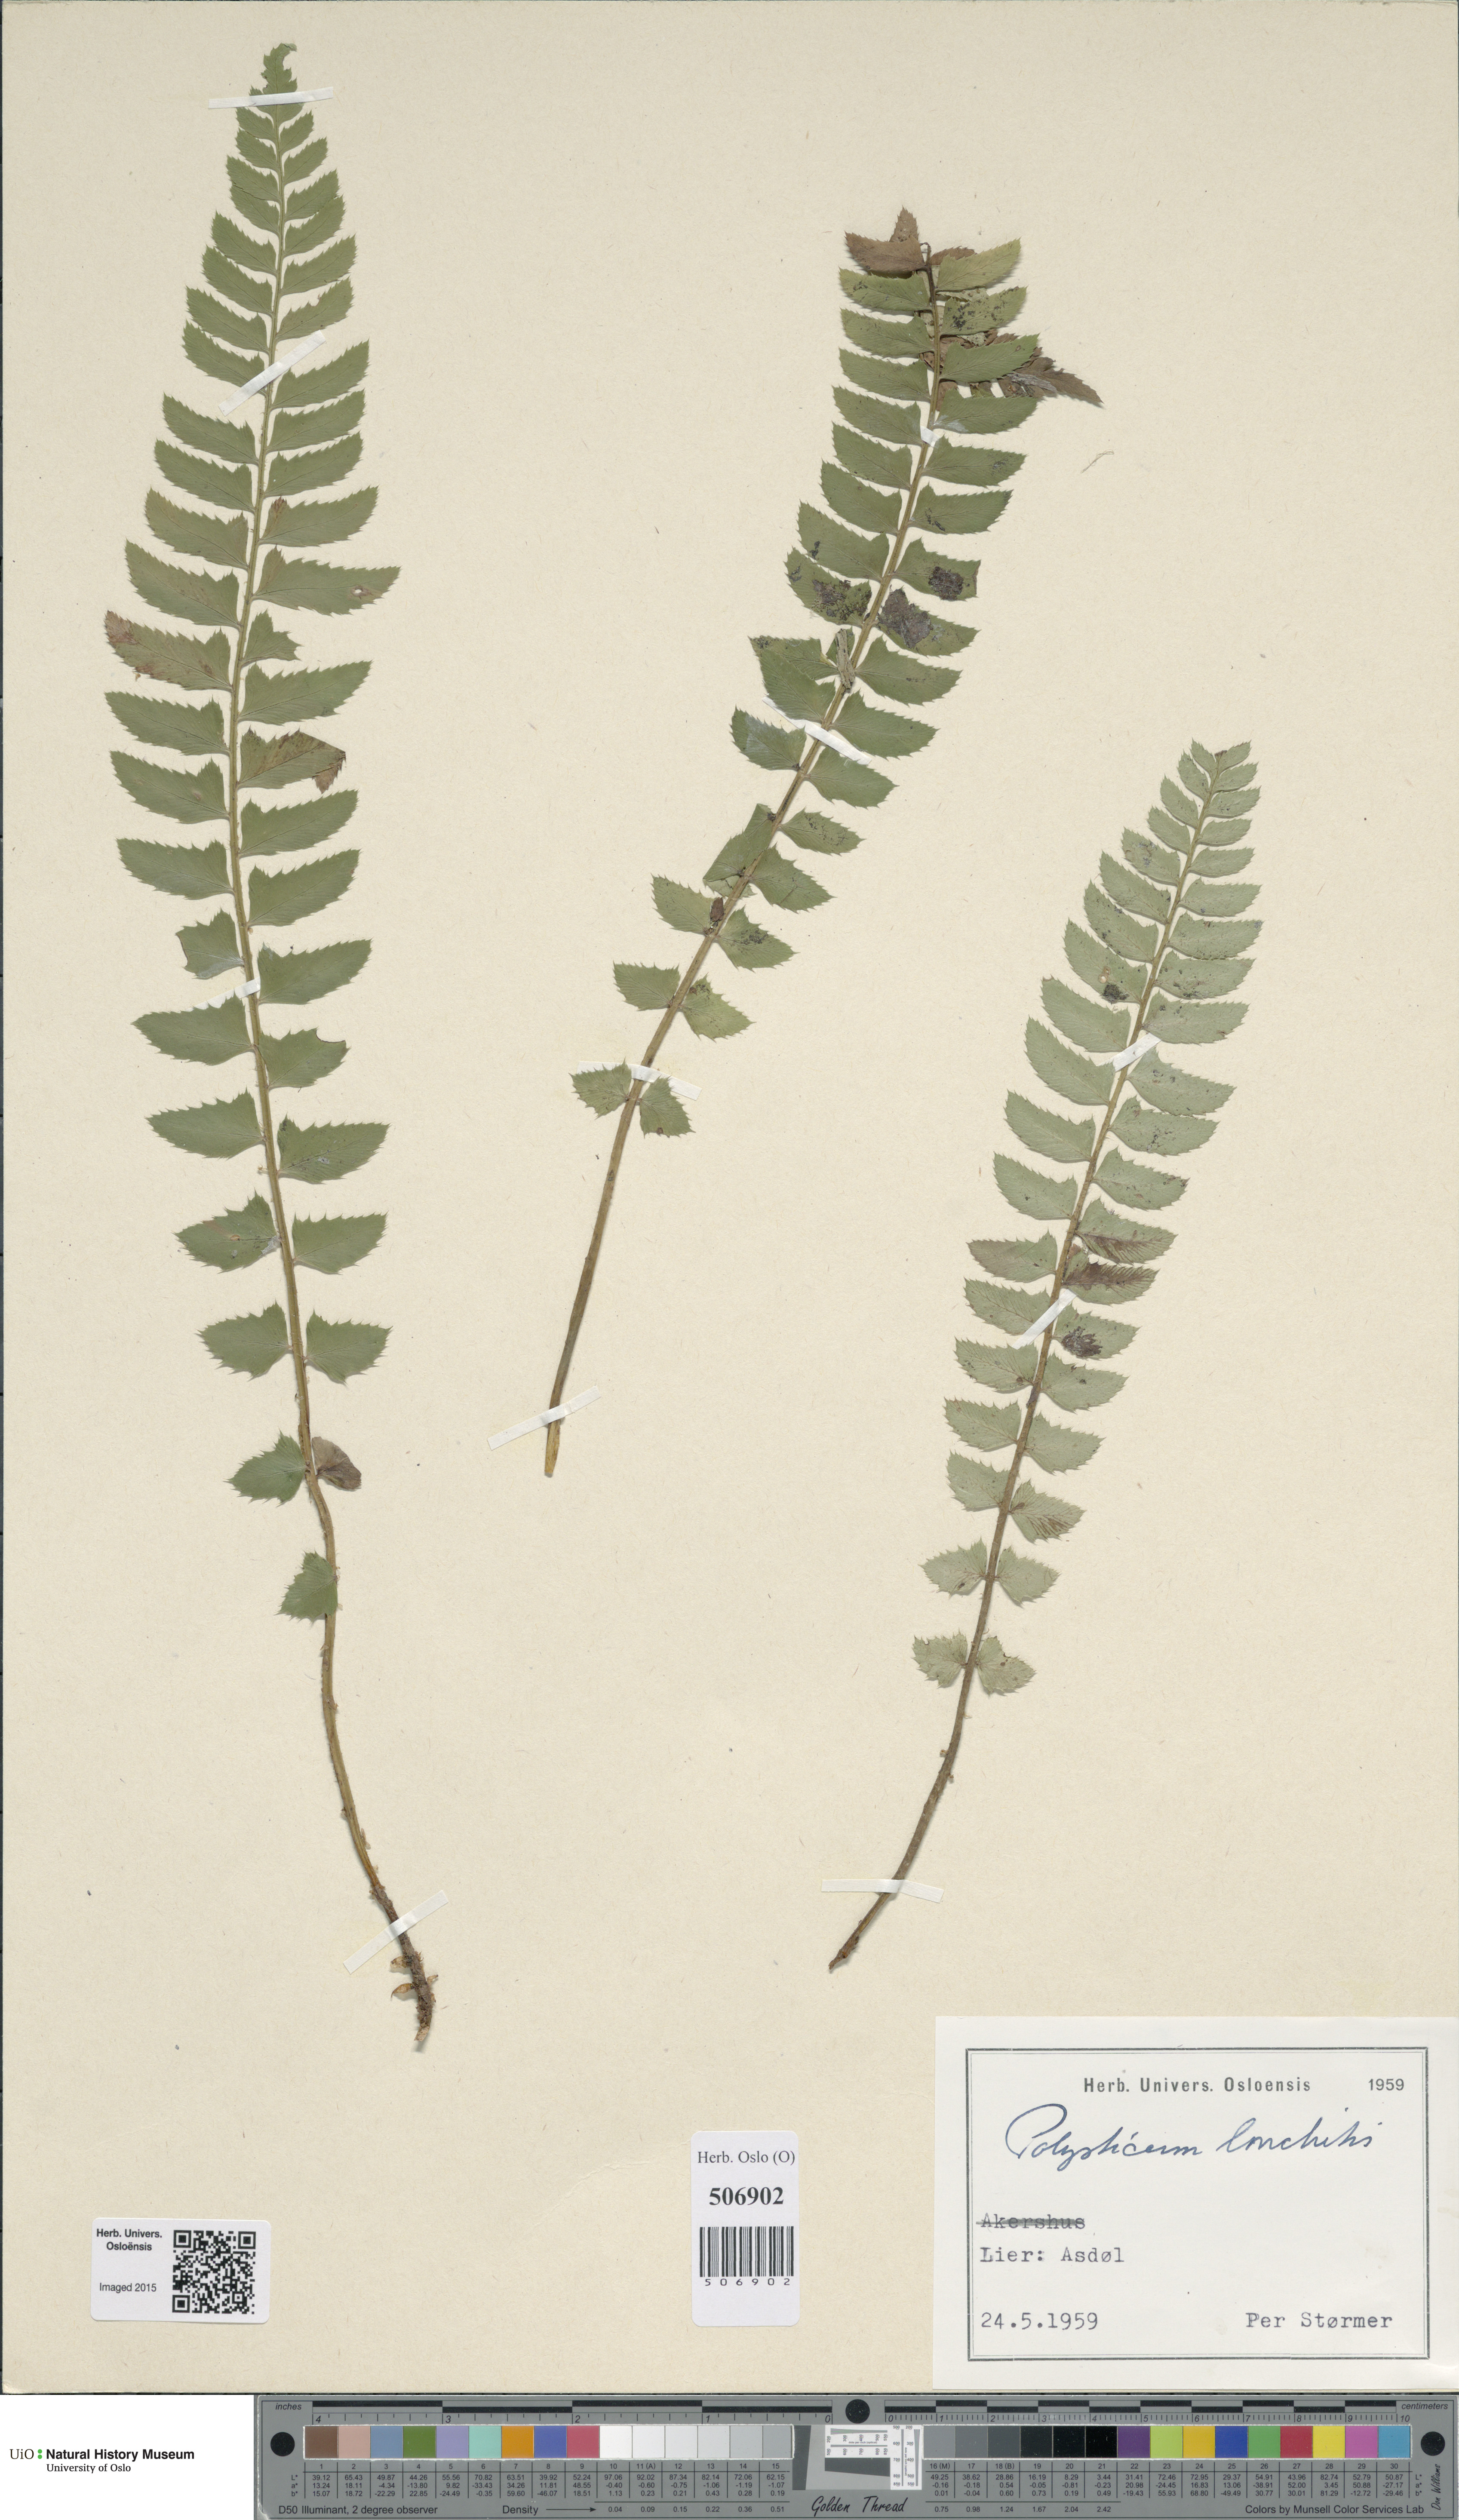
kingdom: Plantae
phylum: Tracheophyta
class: Polypodiopsida
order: Polypodiales
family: Dryopteridaceae
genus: Polystichum
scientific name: Polystichum lonchitis
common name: Holly fern
